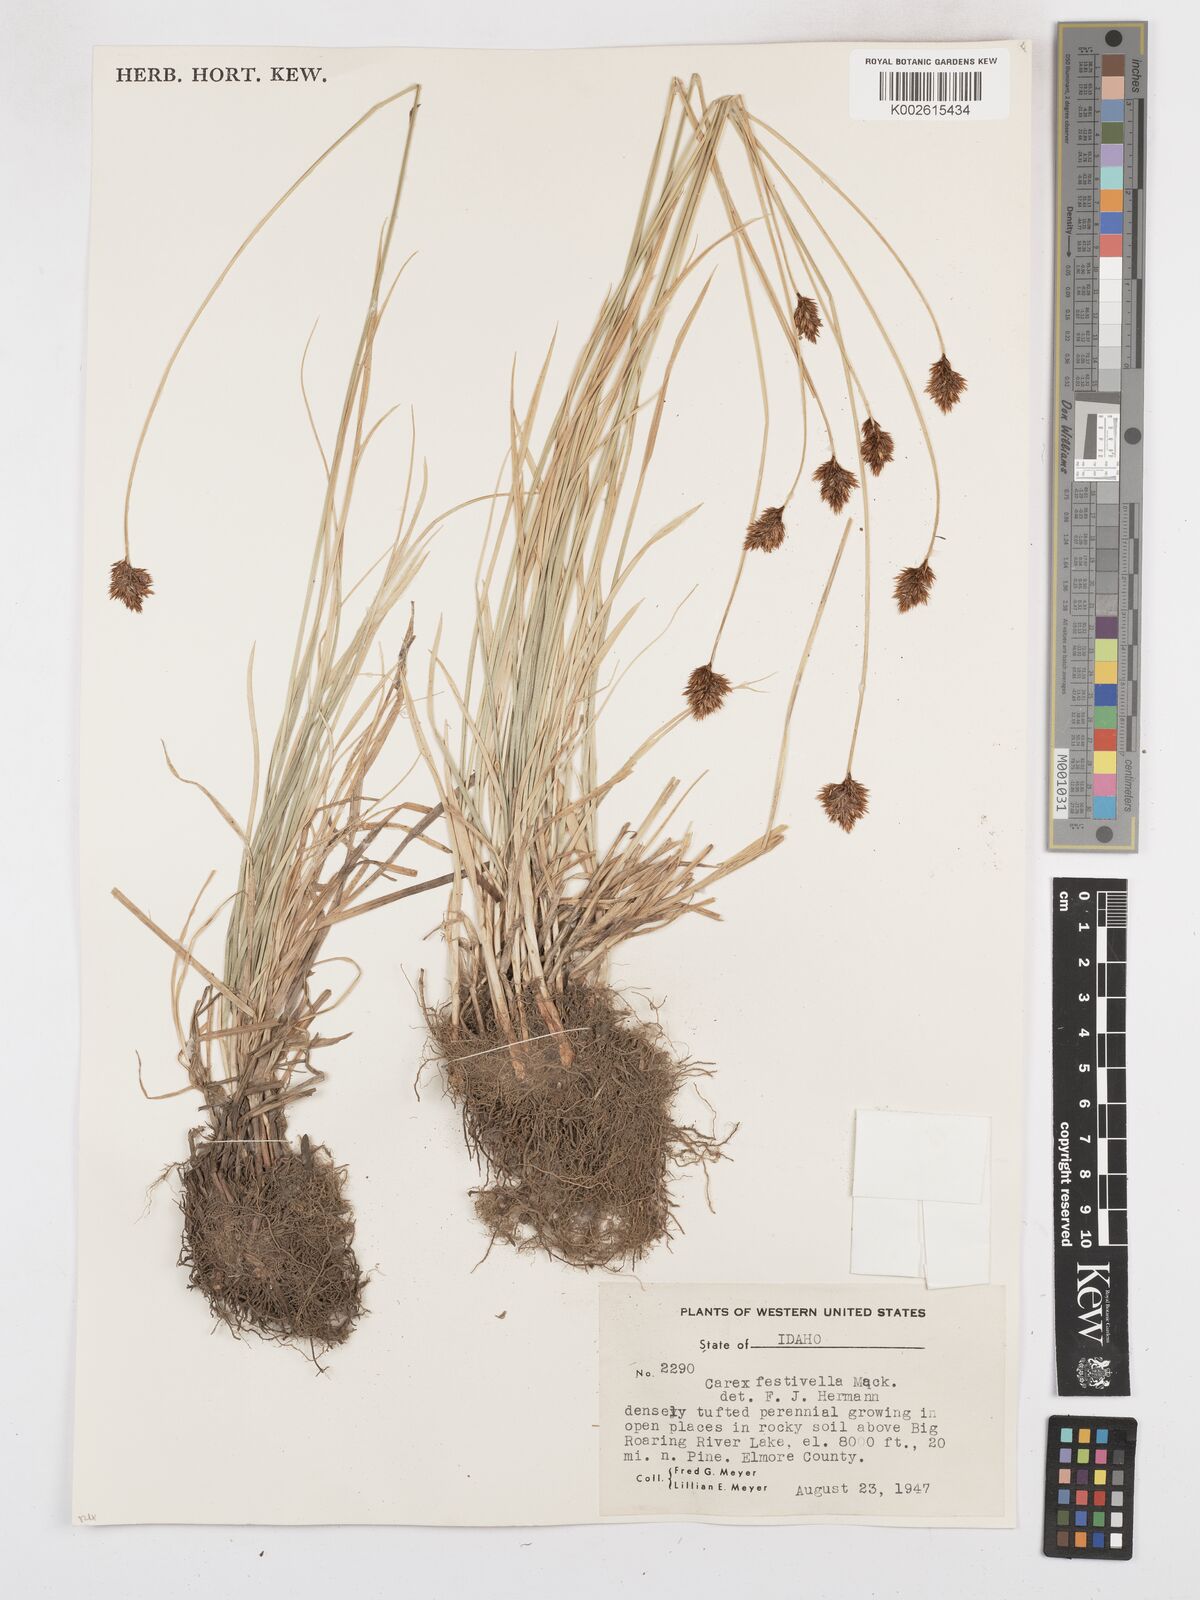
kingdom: Plantae
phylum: Tracheophyta
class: Liliopsida
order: Poales
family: Cyperaceae
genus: Carex
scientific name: Carex microptera
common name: Oval-headed sedge
